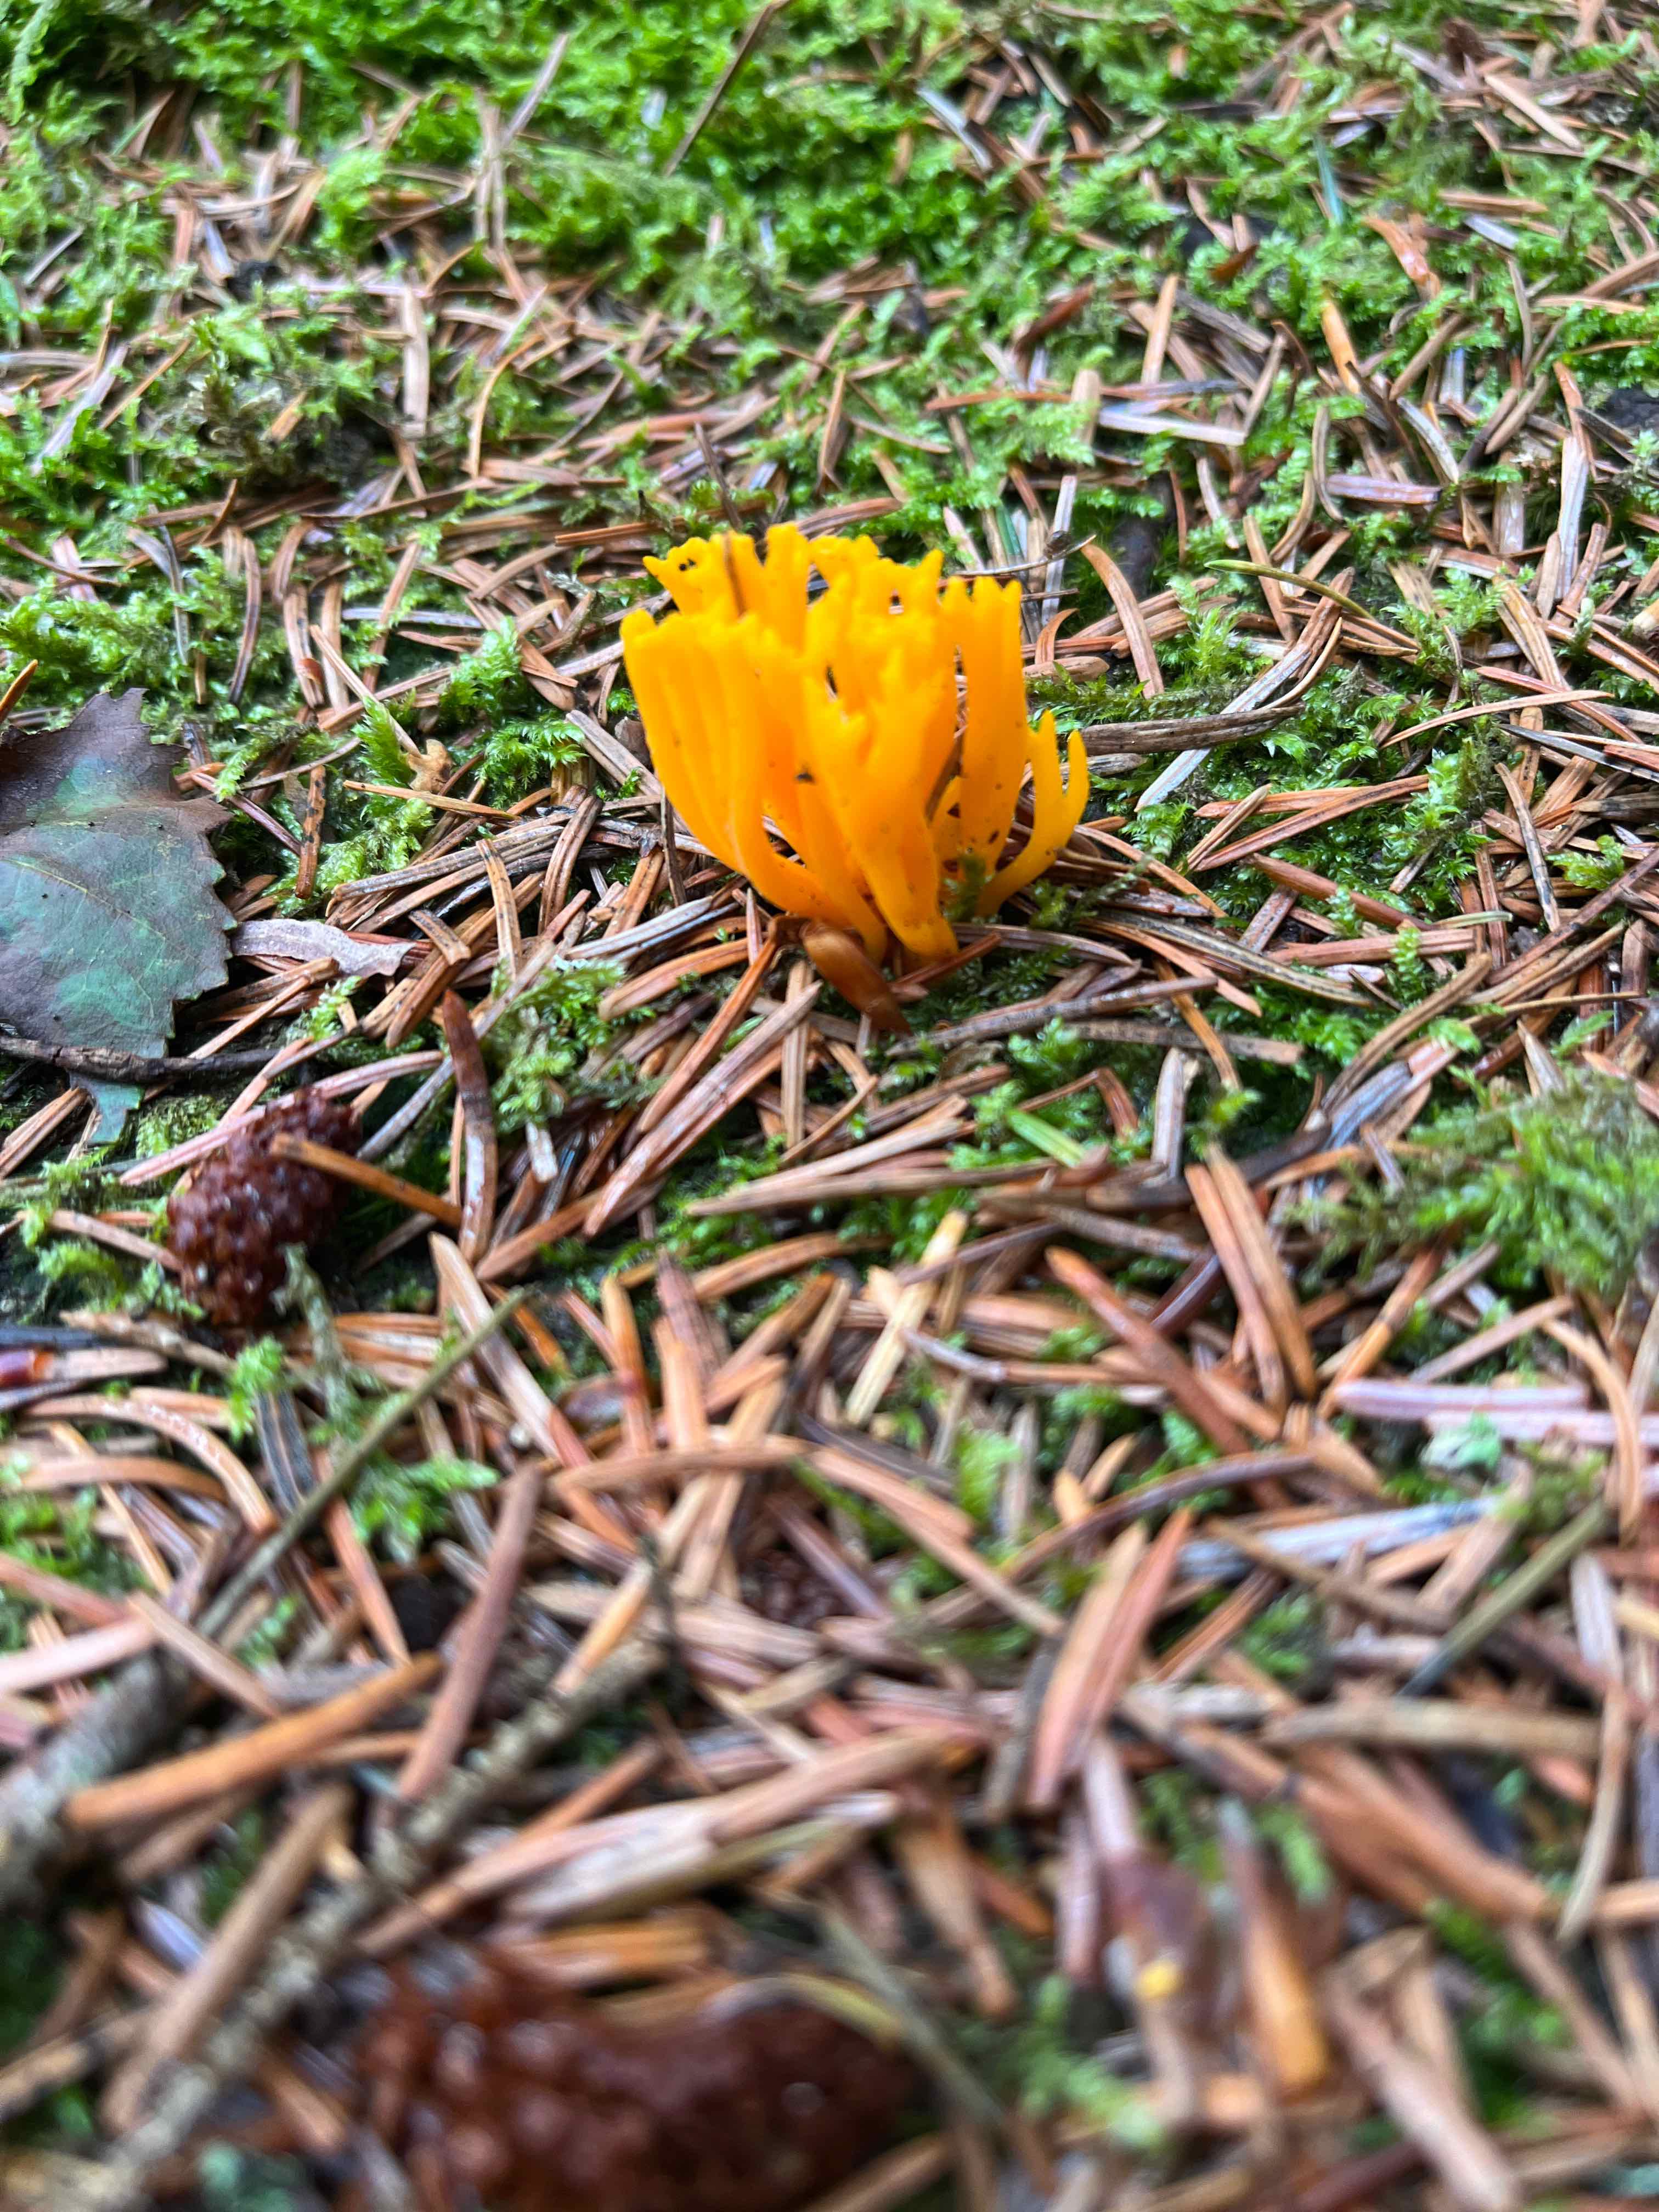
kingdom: Fungi
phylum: Basidiomycota
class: Dacrymycetes
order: Dacrymycetales
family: Dacrymycetaceae
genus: Calocera
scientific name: Calocera viscosa
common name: almindelig guldgaffel
